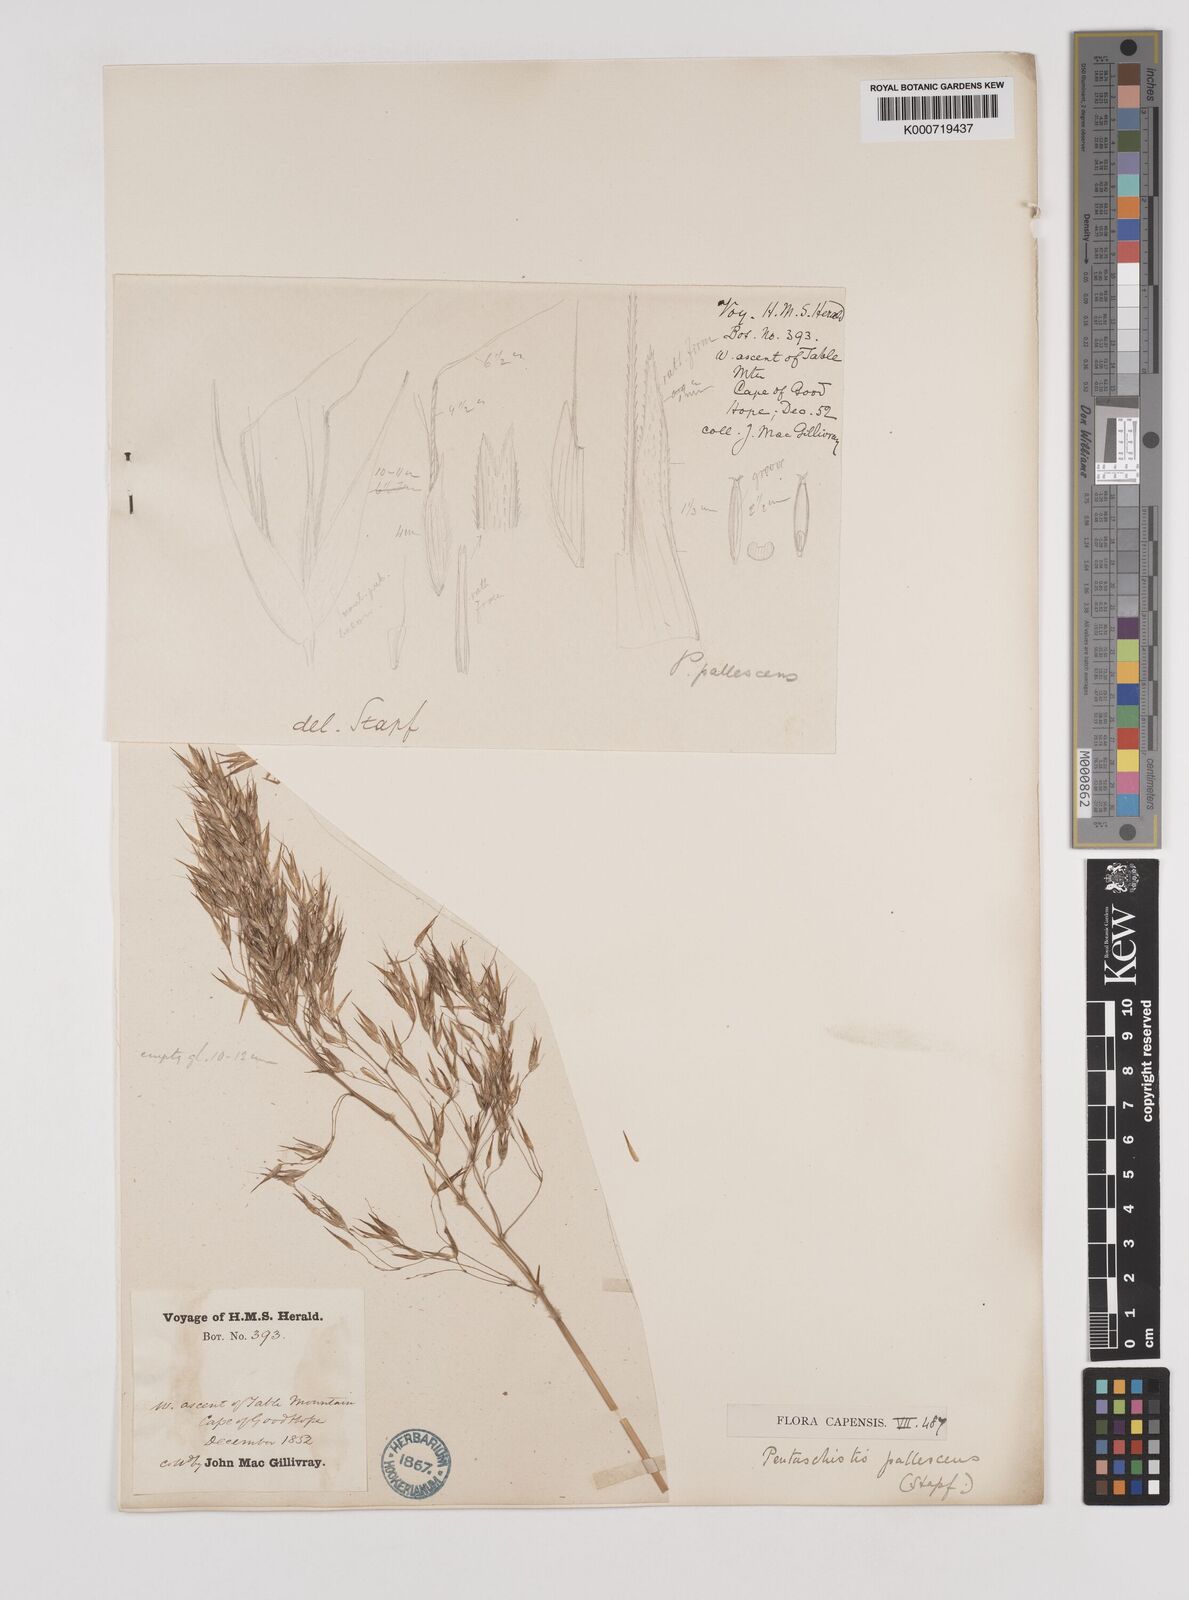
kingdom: Plantae
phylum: Tracheophyta
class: Liliopsida
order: Poales
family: Poaceae
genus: Pentameris
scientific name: Pentameris pallescens
